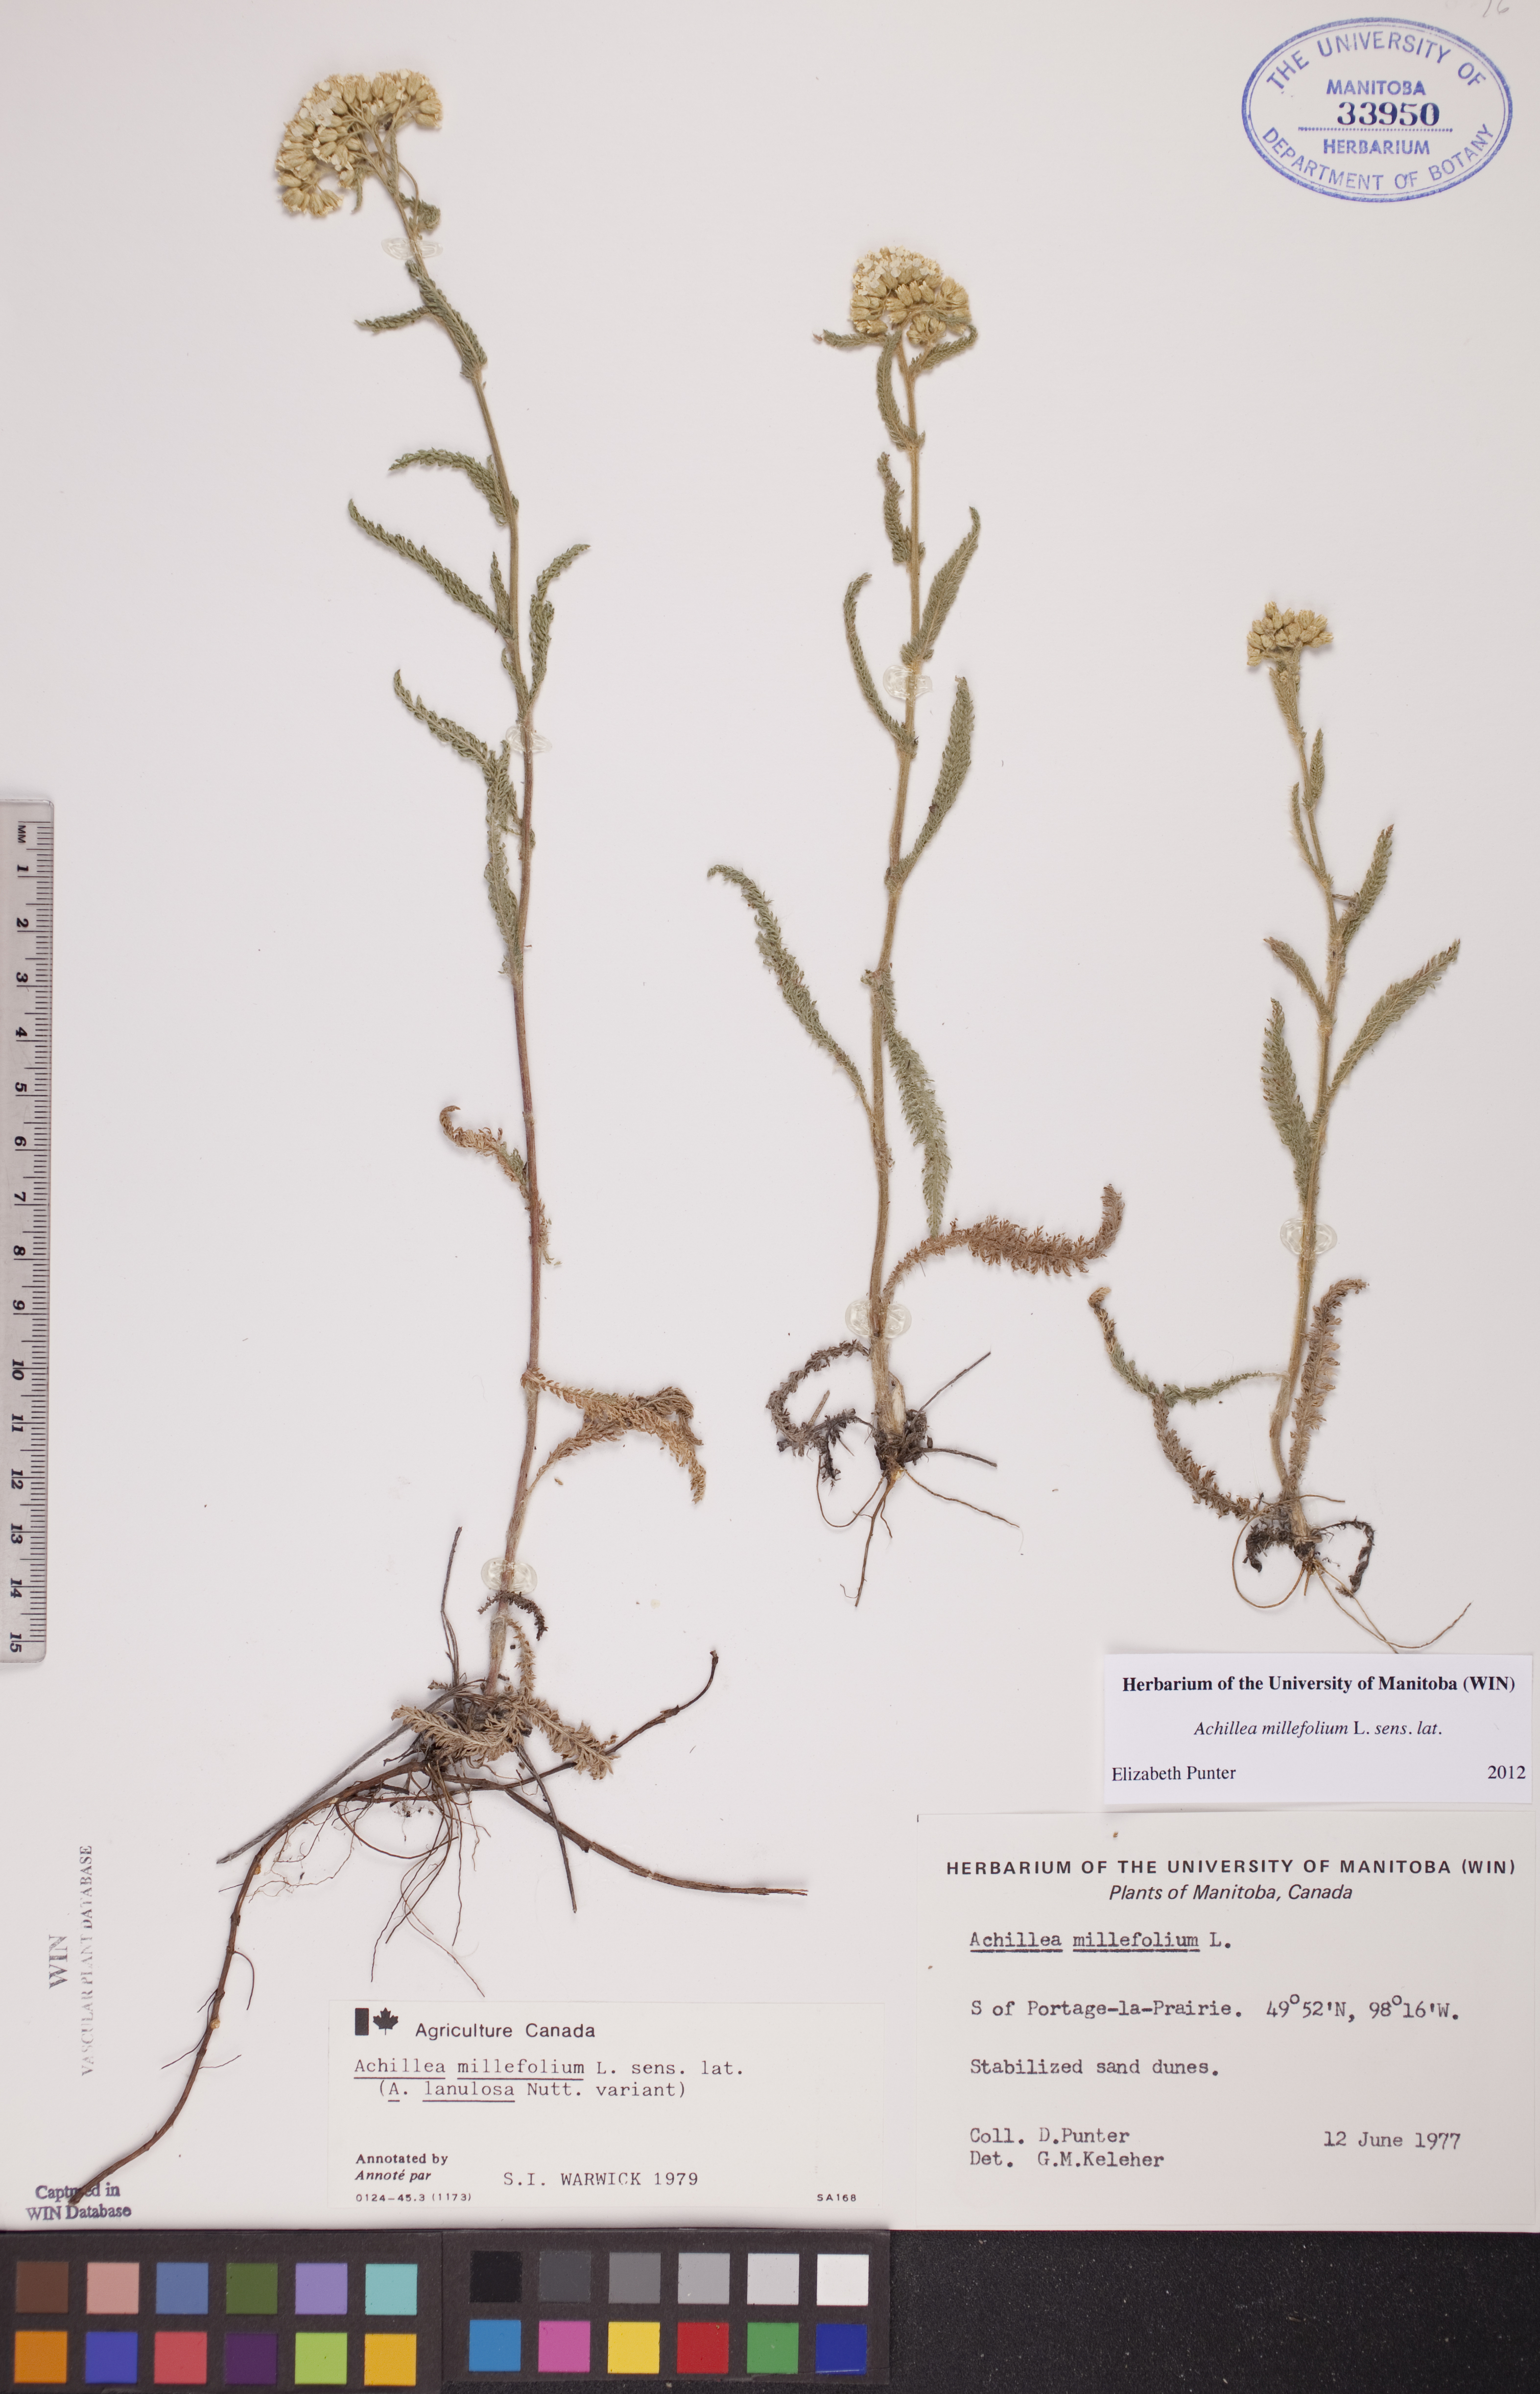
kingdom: Plantae
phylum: Tracheophyta
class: Magnoliopsida
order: Asterales
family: Asteraceae
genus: Achillea
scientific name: Achillea millefolium
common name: Yarrow
